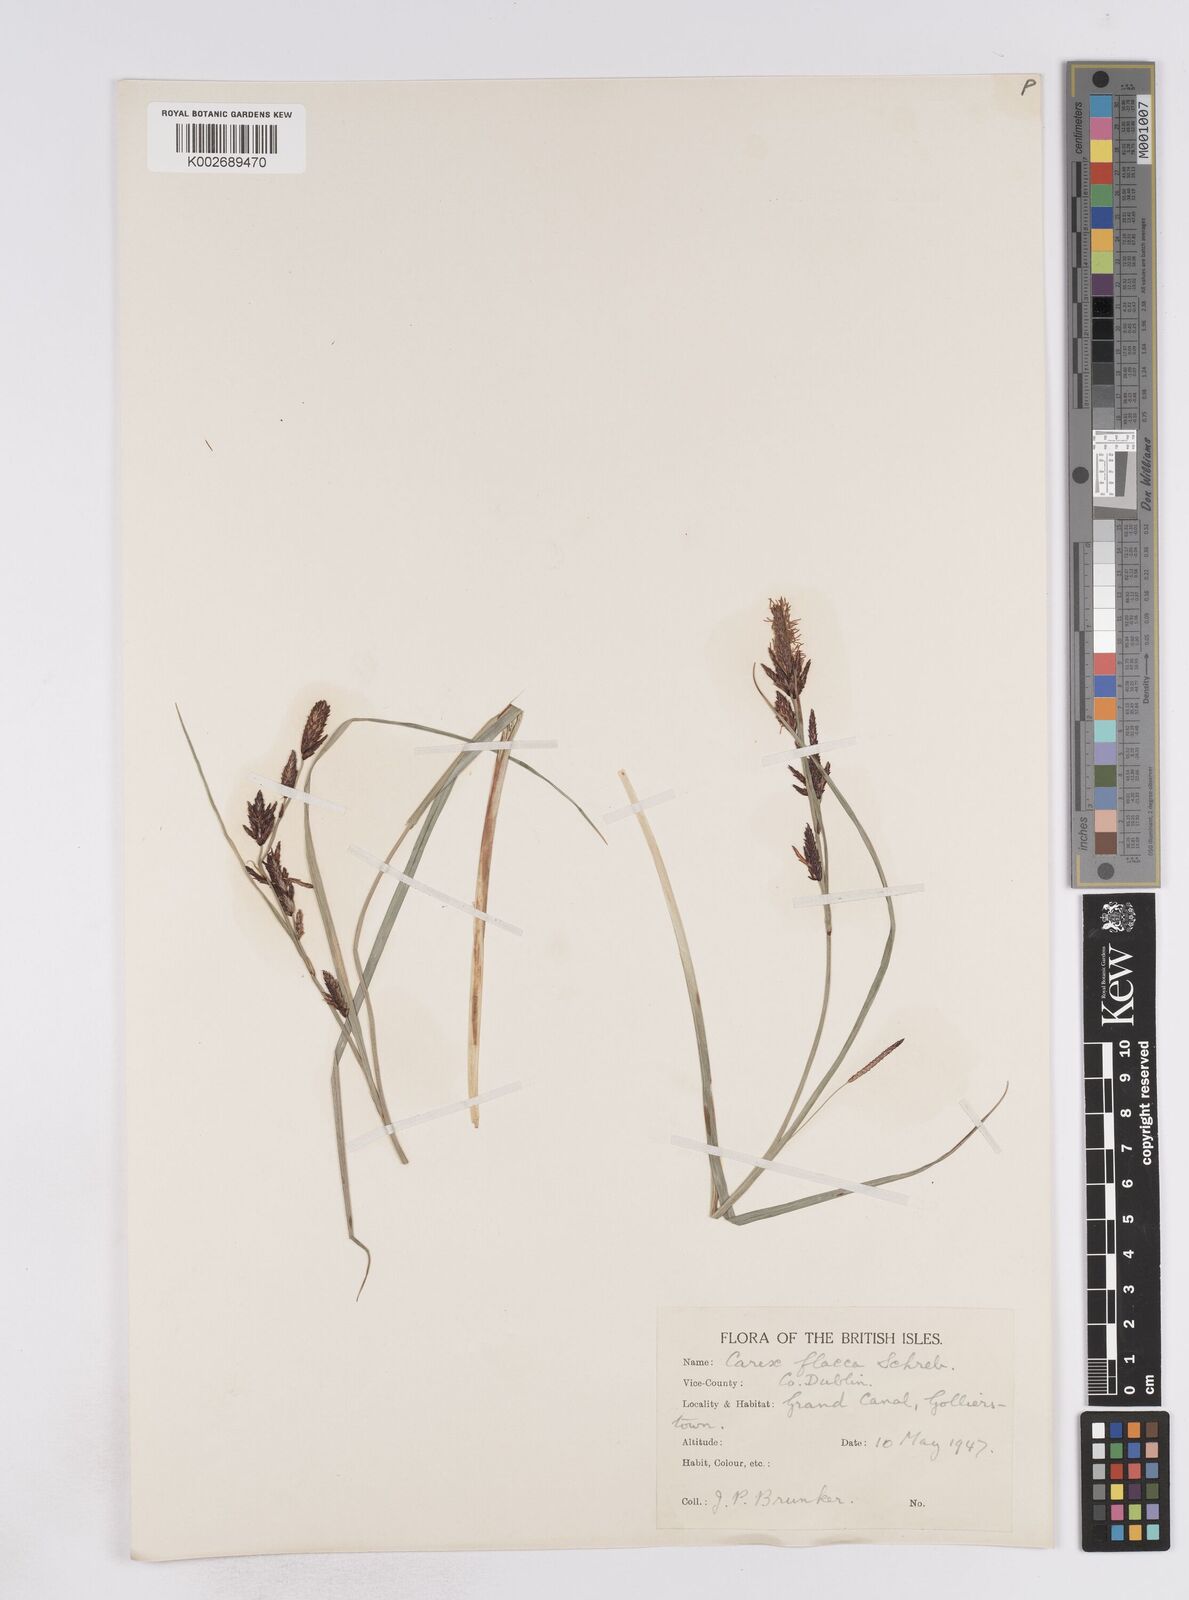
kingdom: Plantae
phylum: Tracheophyta
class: Liliopsida
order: Poales
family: Cyperaceae
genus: Carex
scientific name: Carex flacca
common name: Glaucous sedge
